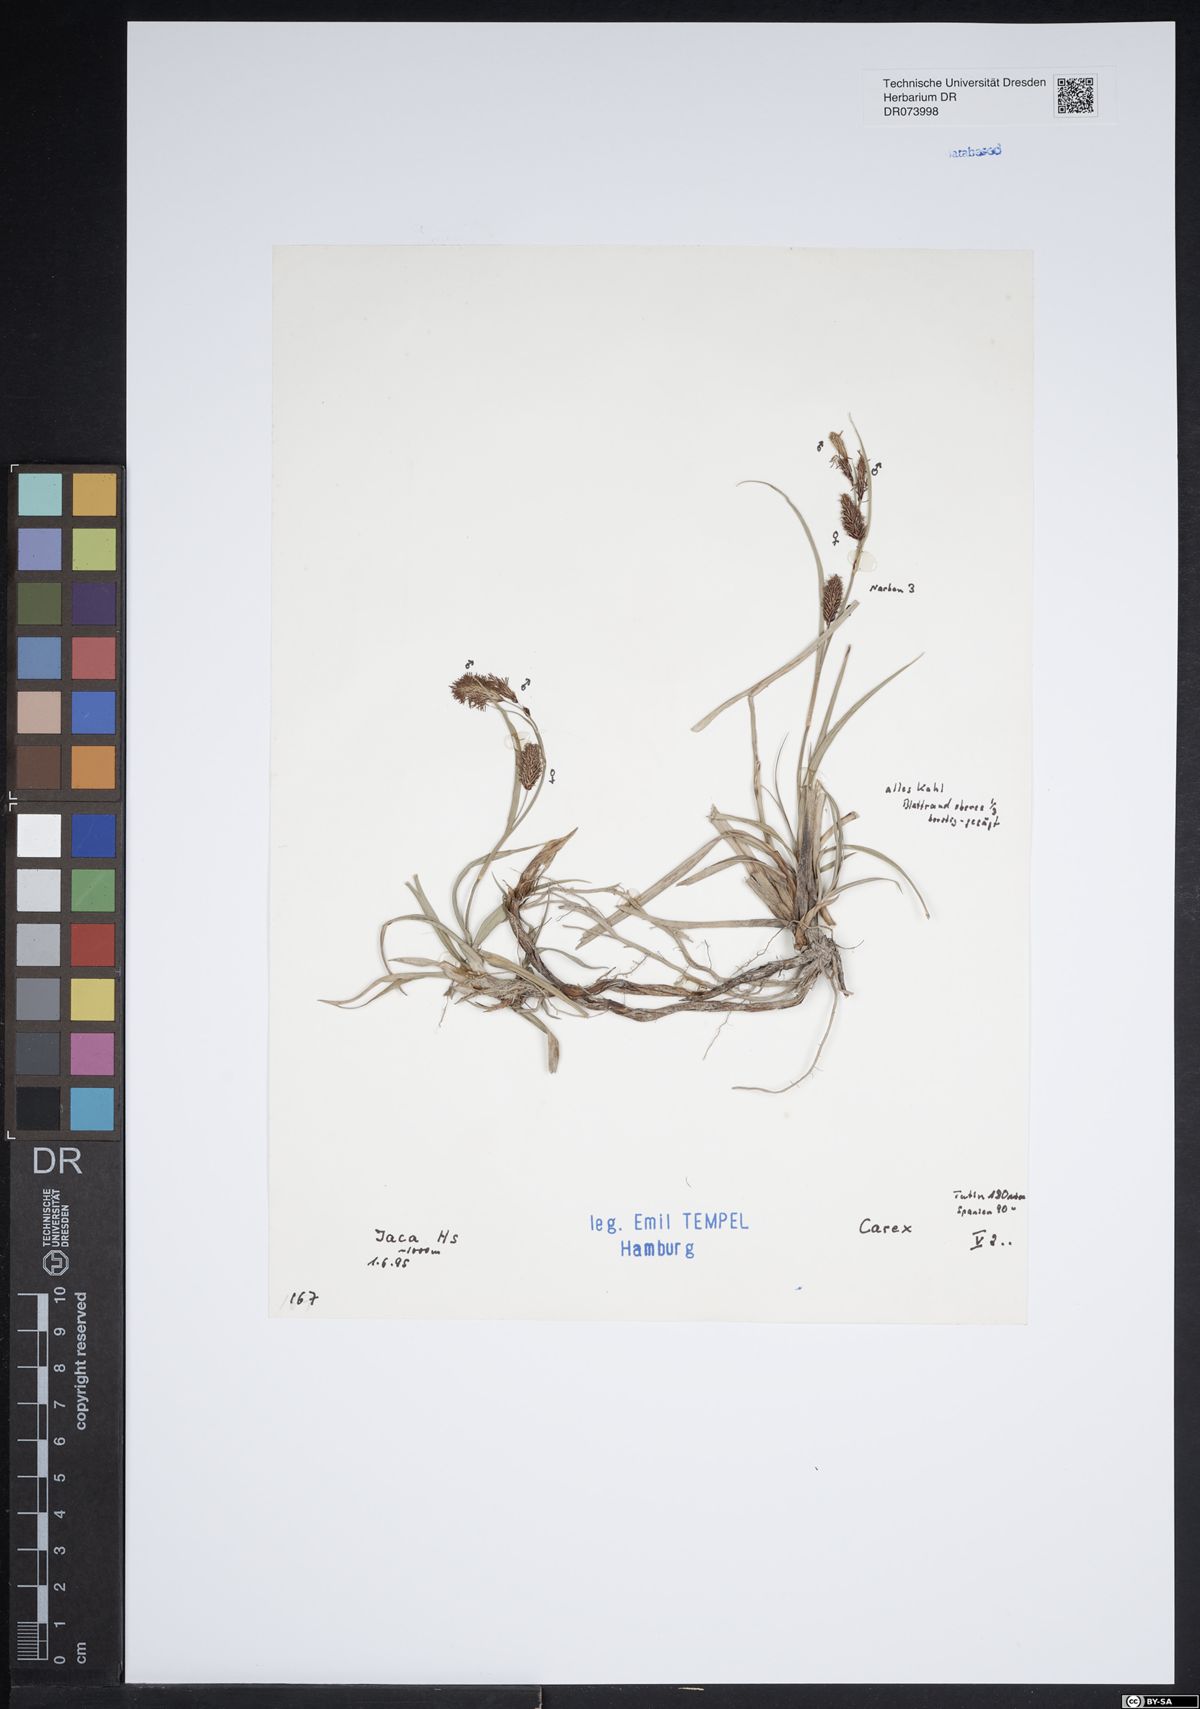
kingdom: Plantae
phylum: Tracheophyta
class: Liliopsida
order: Poales
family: Cyperaceae
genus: Carex
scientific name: Carex
